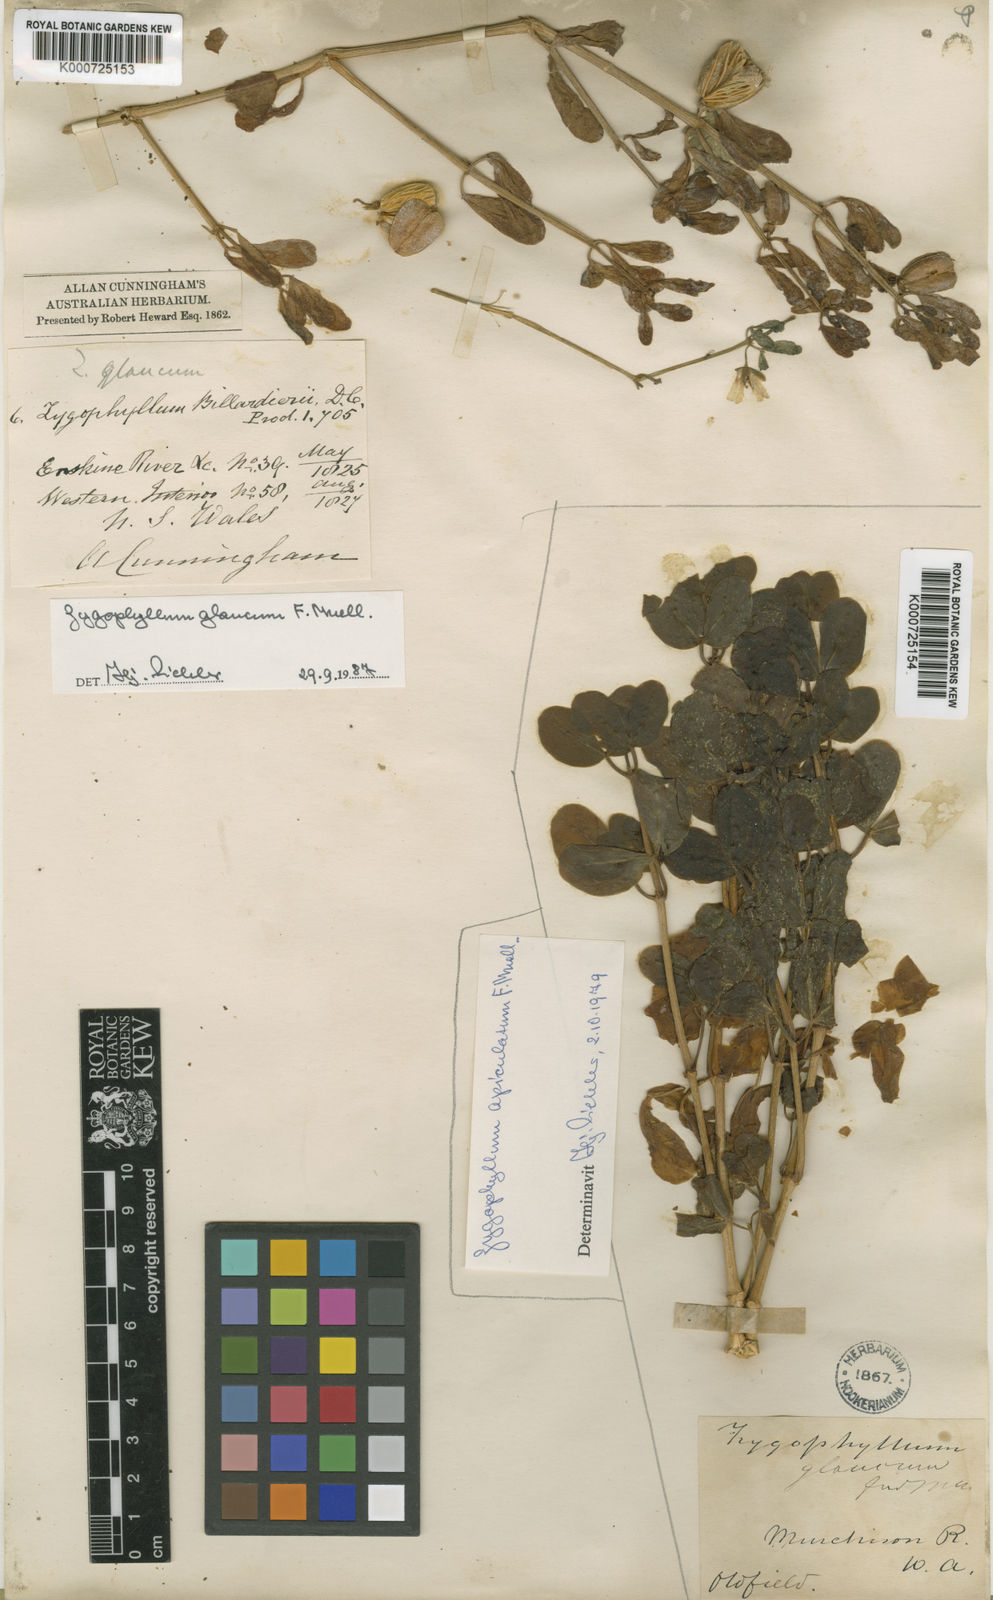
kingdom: Plantae
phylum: Tracheophyta
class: Magnoliopsida
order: Zygophyllales
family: Zygophyllaceae
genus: Roepera
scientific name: Roepera
